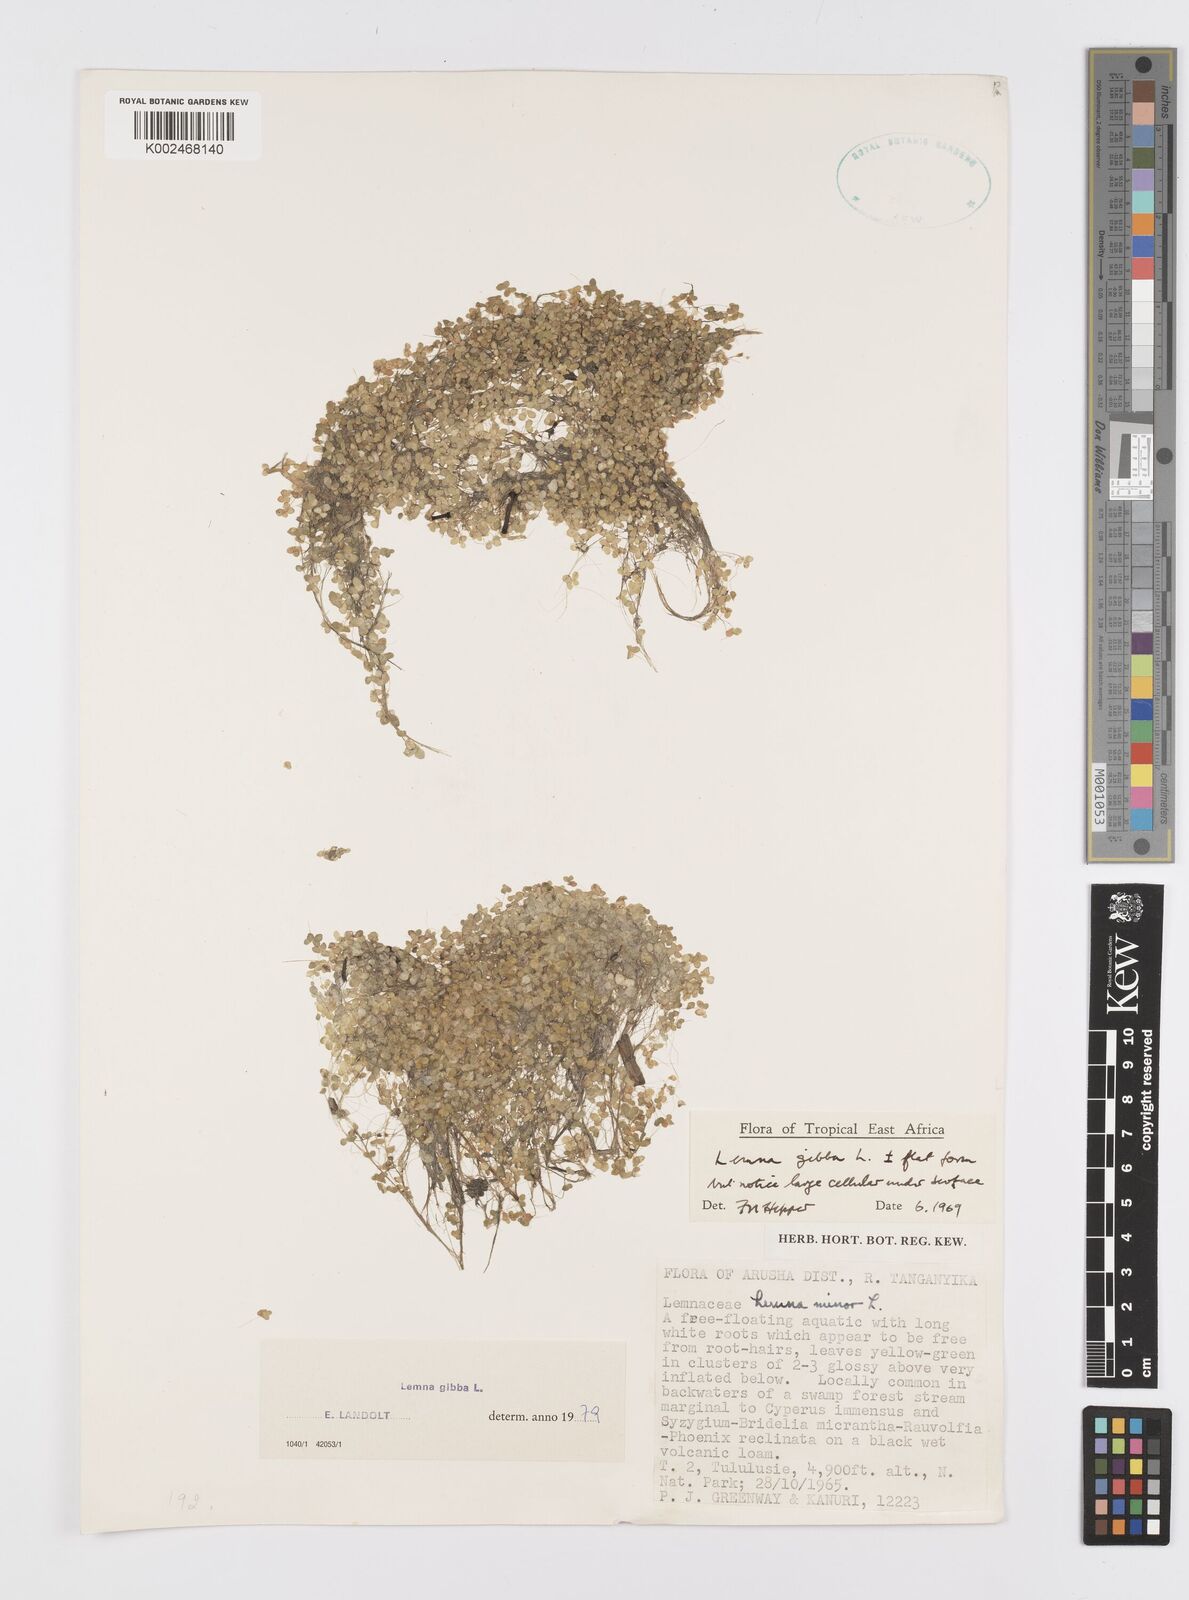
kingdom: Plantae
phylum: Tracheophyta
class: Liliopsida
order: Alismatales
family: Araceae
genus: Lemna
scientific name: Lemna gibba
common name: Fat duckweed
